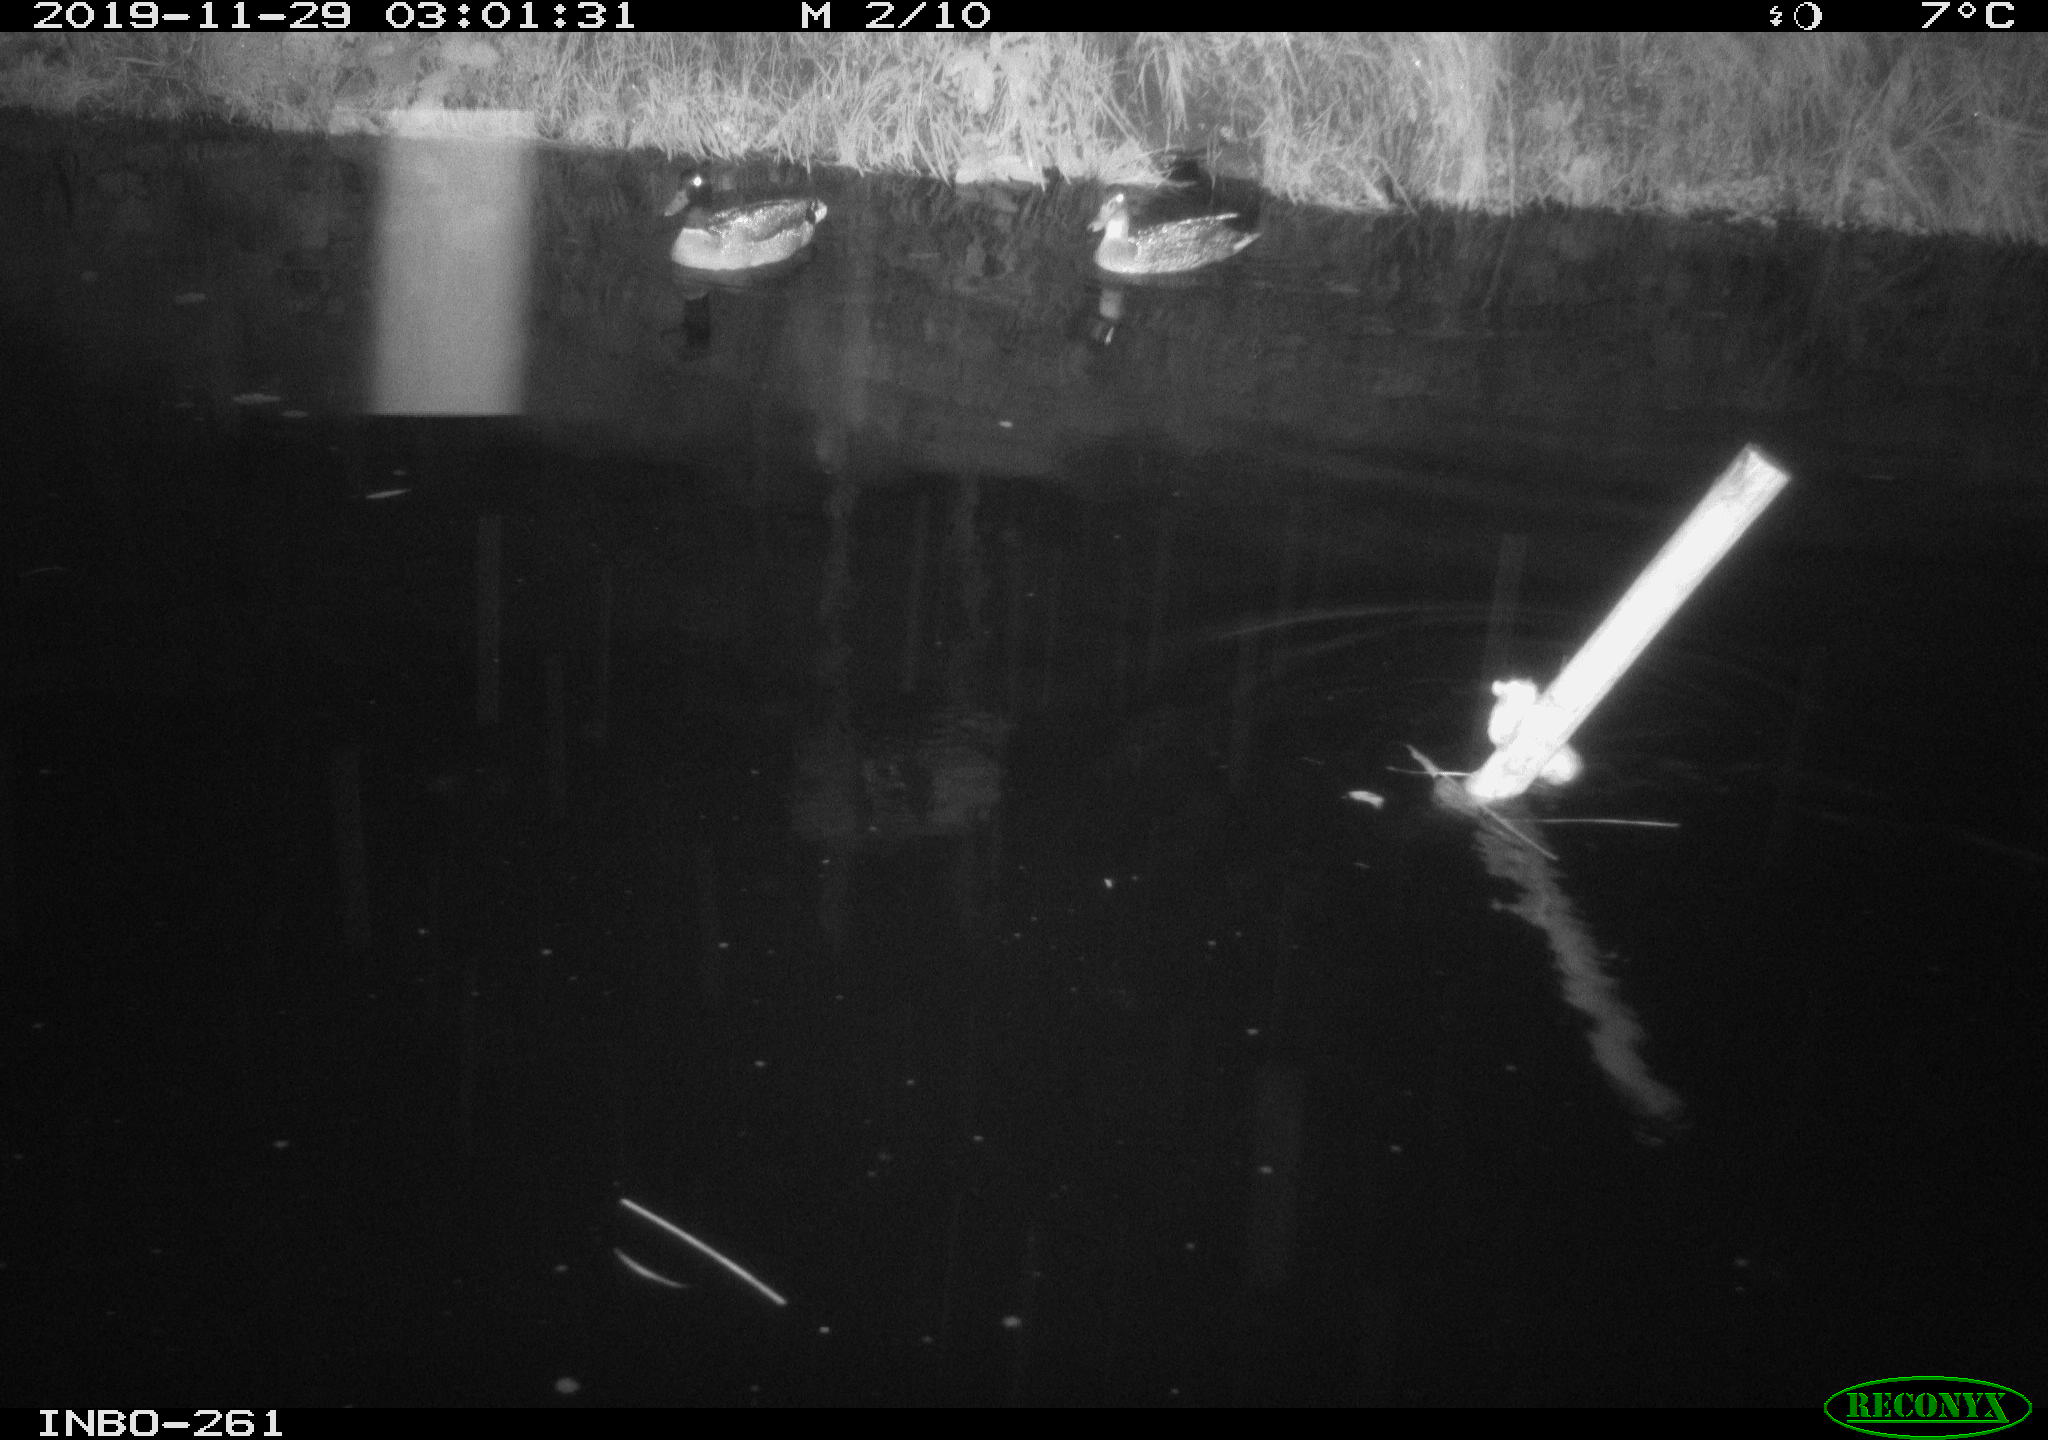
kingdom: Animalia
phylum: Chordata
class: Mammalia
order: Rodentia
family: Muridae
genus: Rattus
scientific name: Rattus norvegicus
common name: Brown rat
